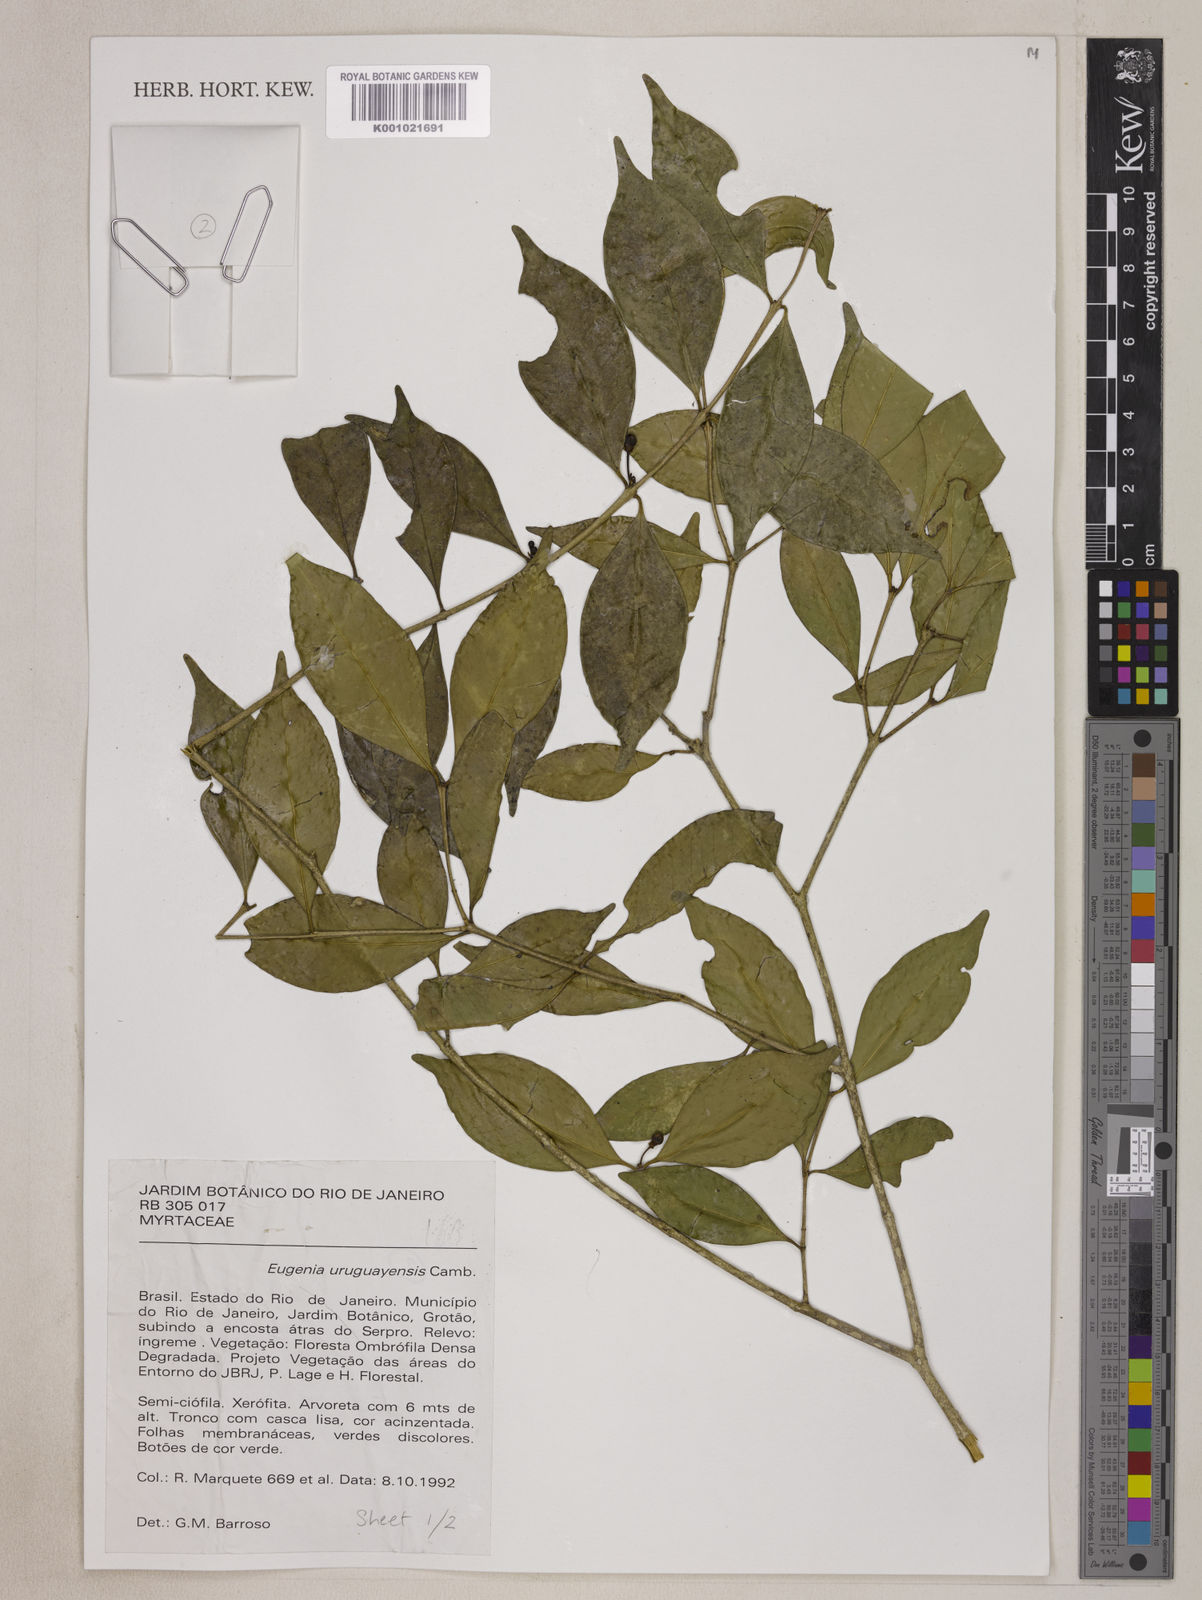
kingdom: Plantae
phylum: Tracheophyta
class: Magnoliopsida
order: Myrtales
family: Myrtaceae
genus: Eugenia
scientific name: Eugenia uruguayensis
